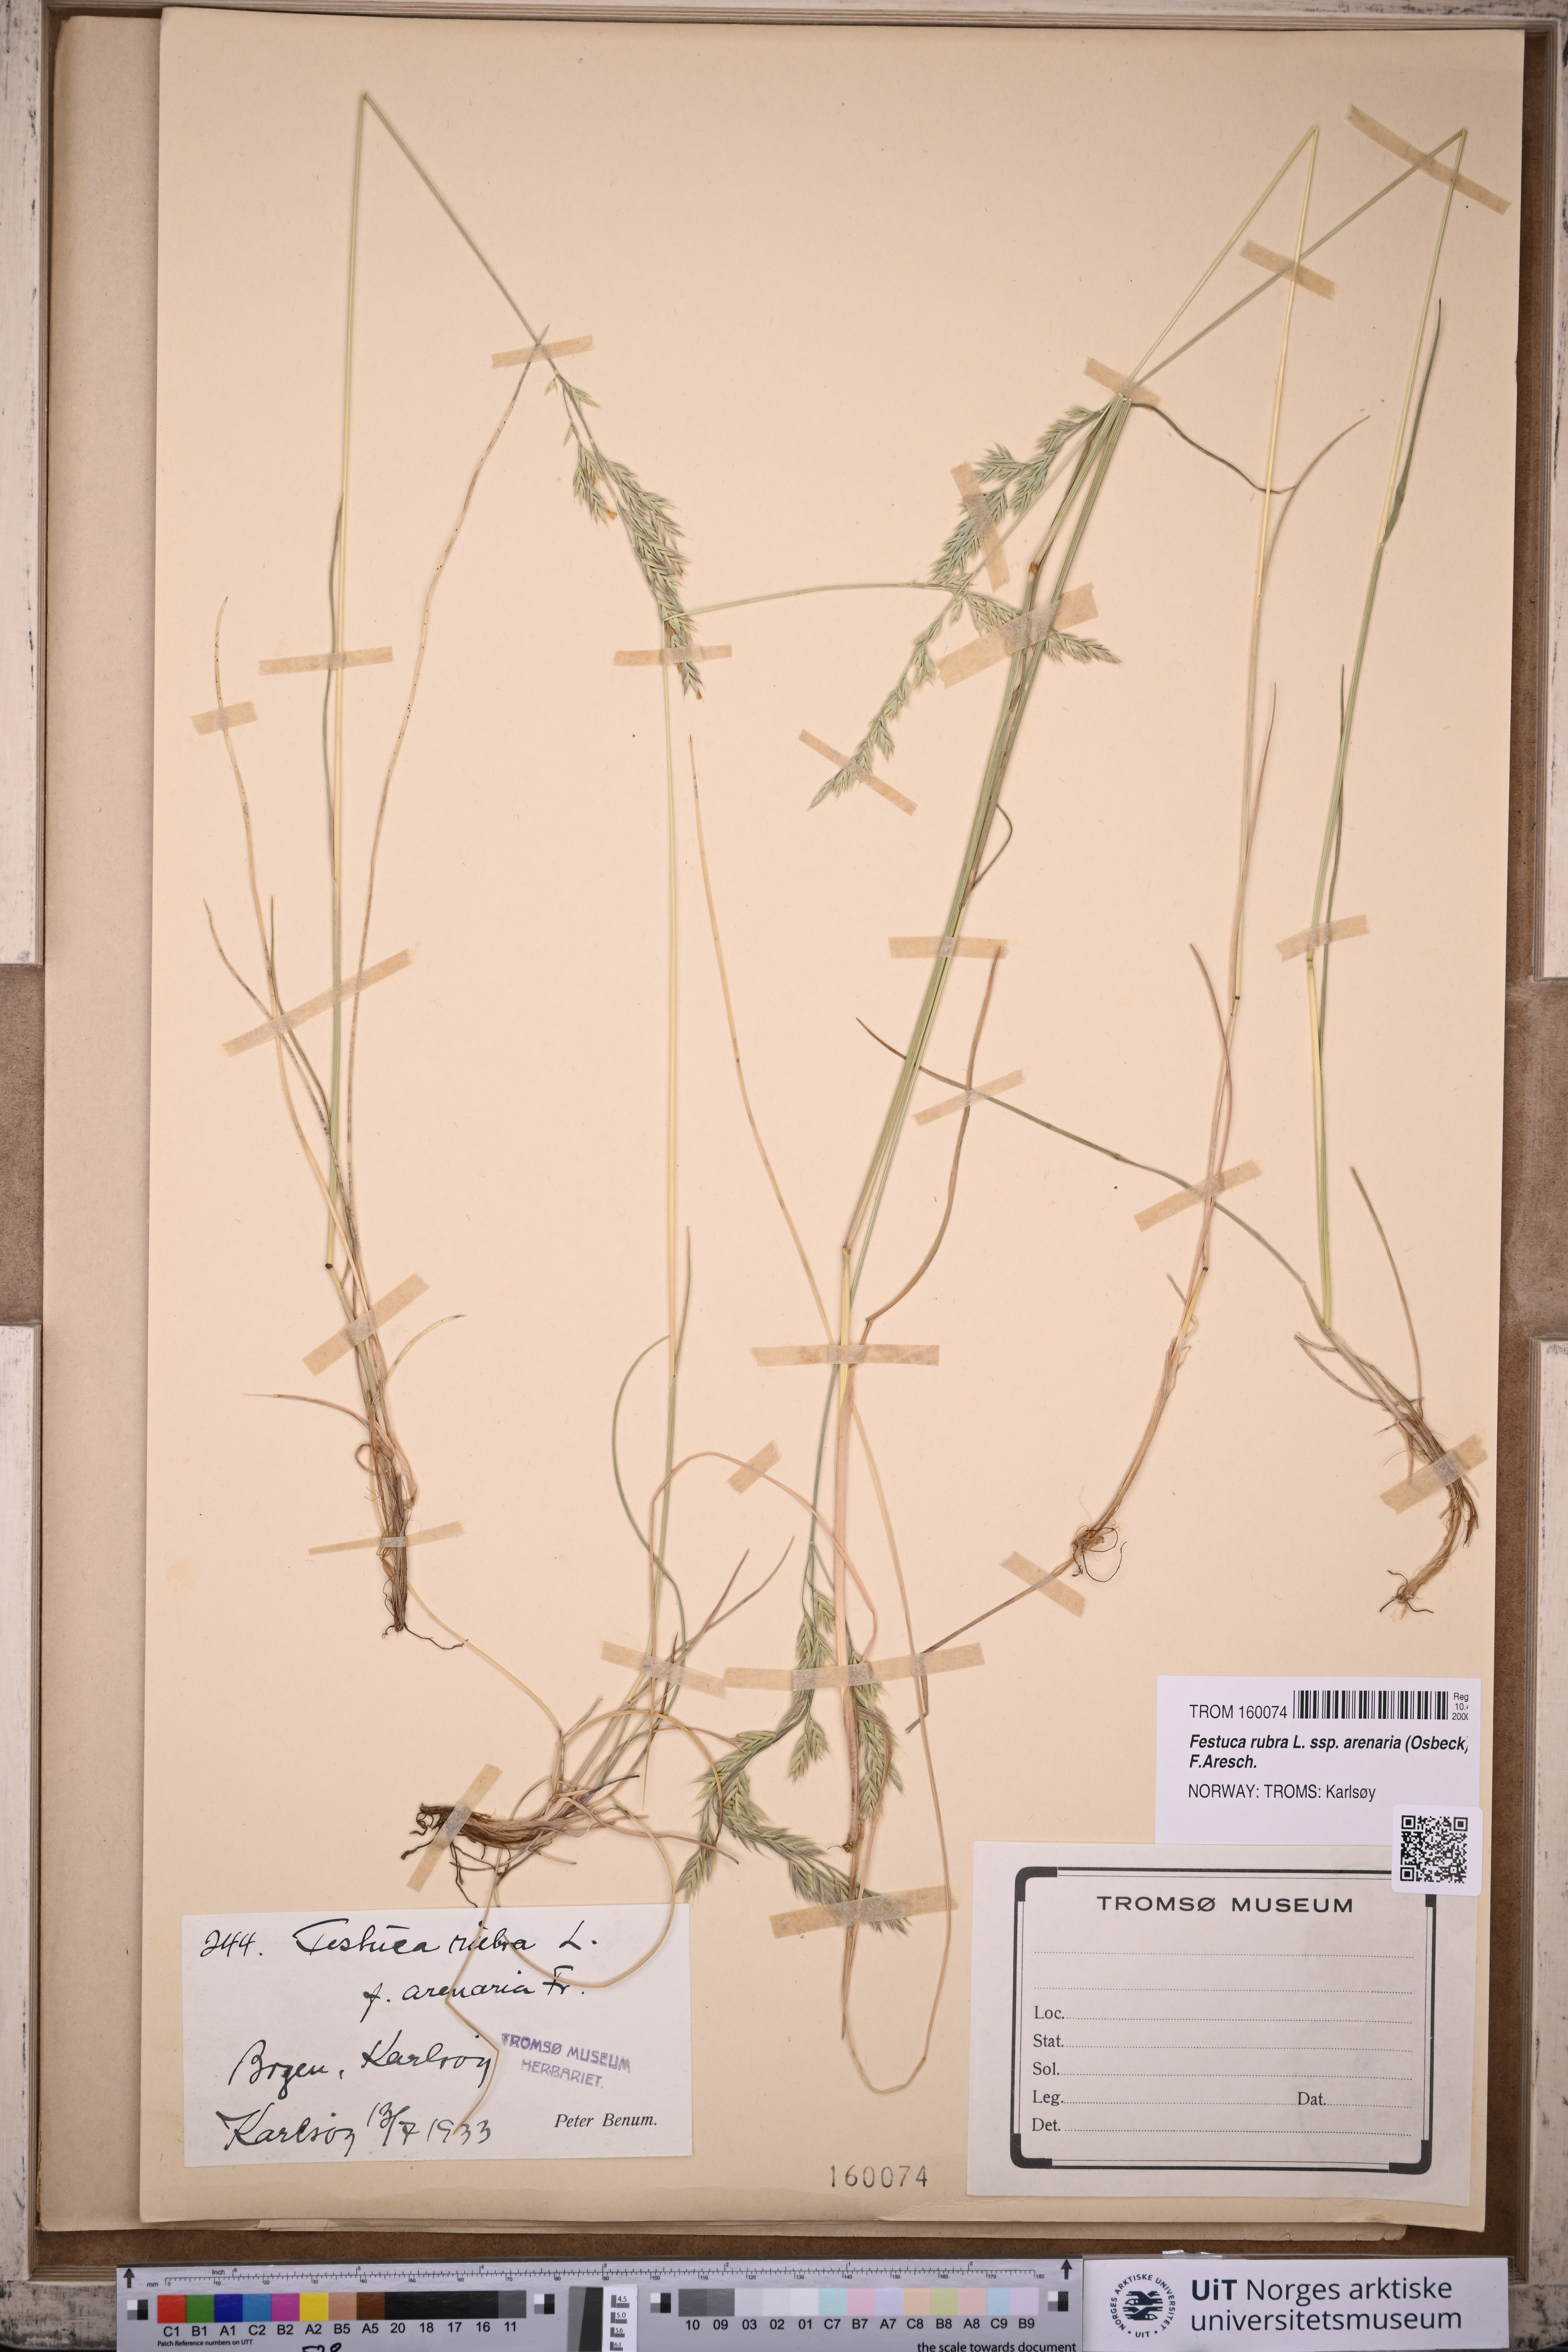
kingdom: Plantae
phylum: Tracheophyta
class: Liliopsida
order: Poales
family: Poaceae
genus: Festuca
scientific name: Festuca rubra
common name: Red fescue
